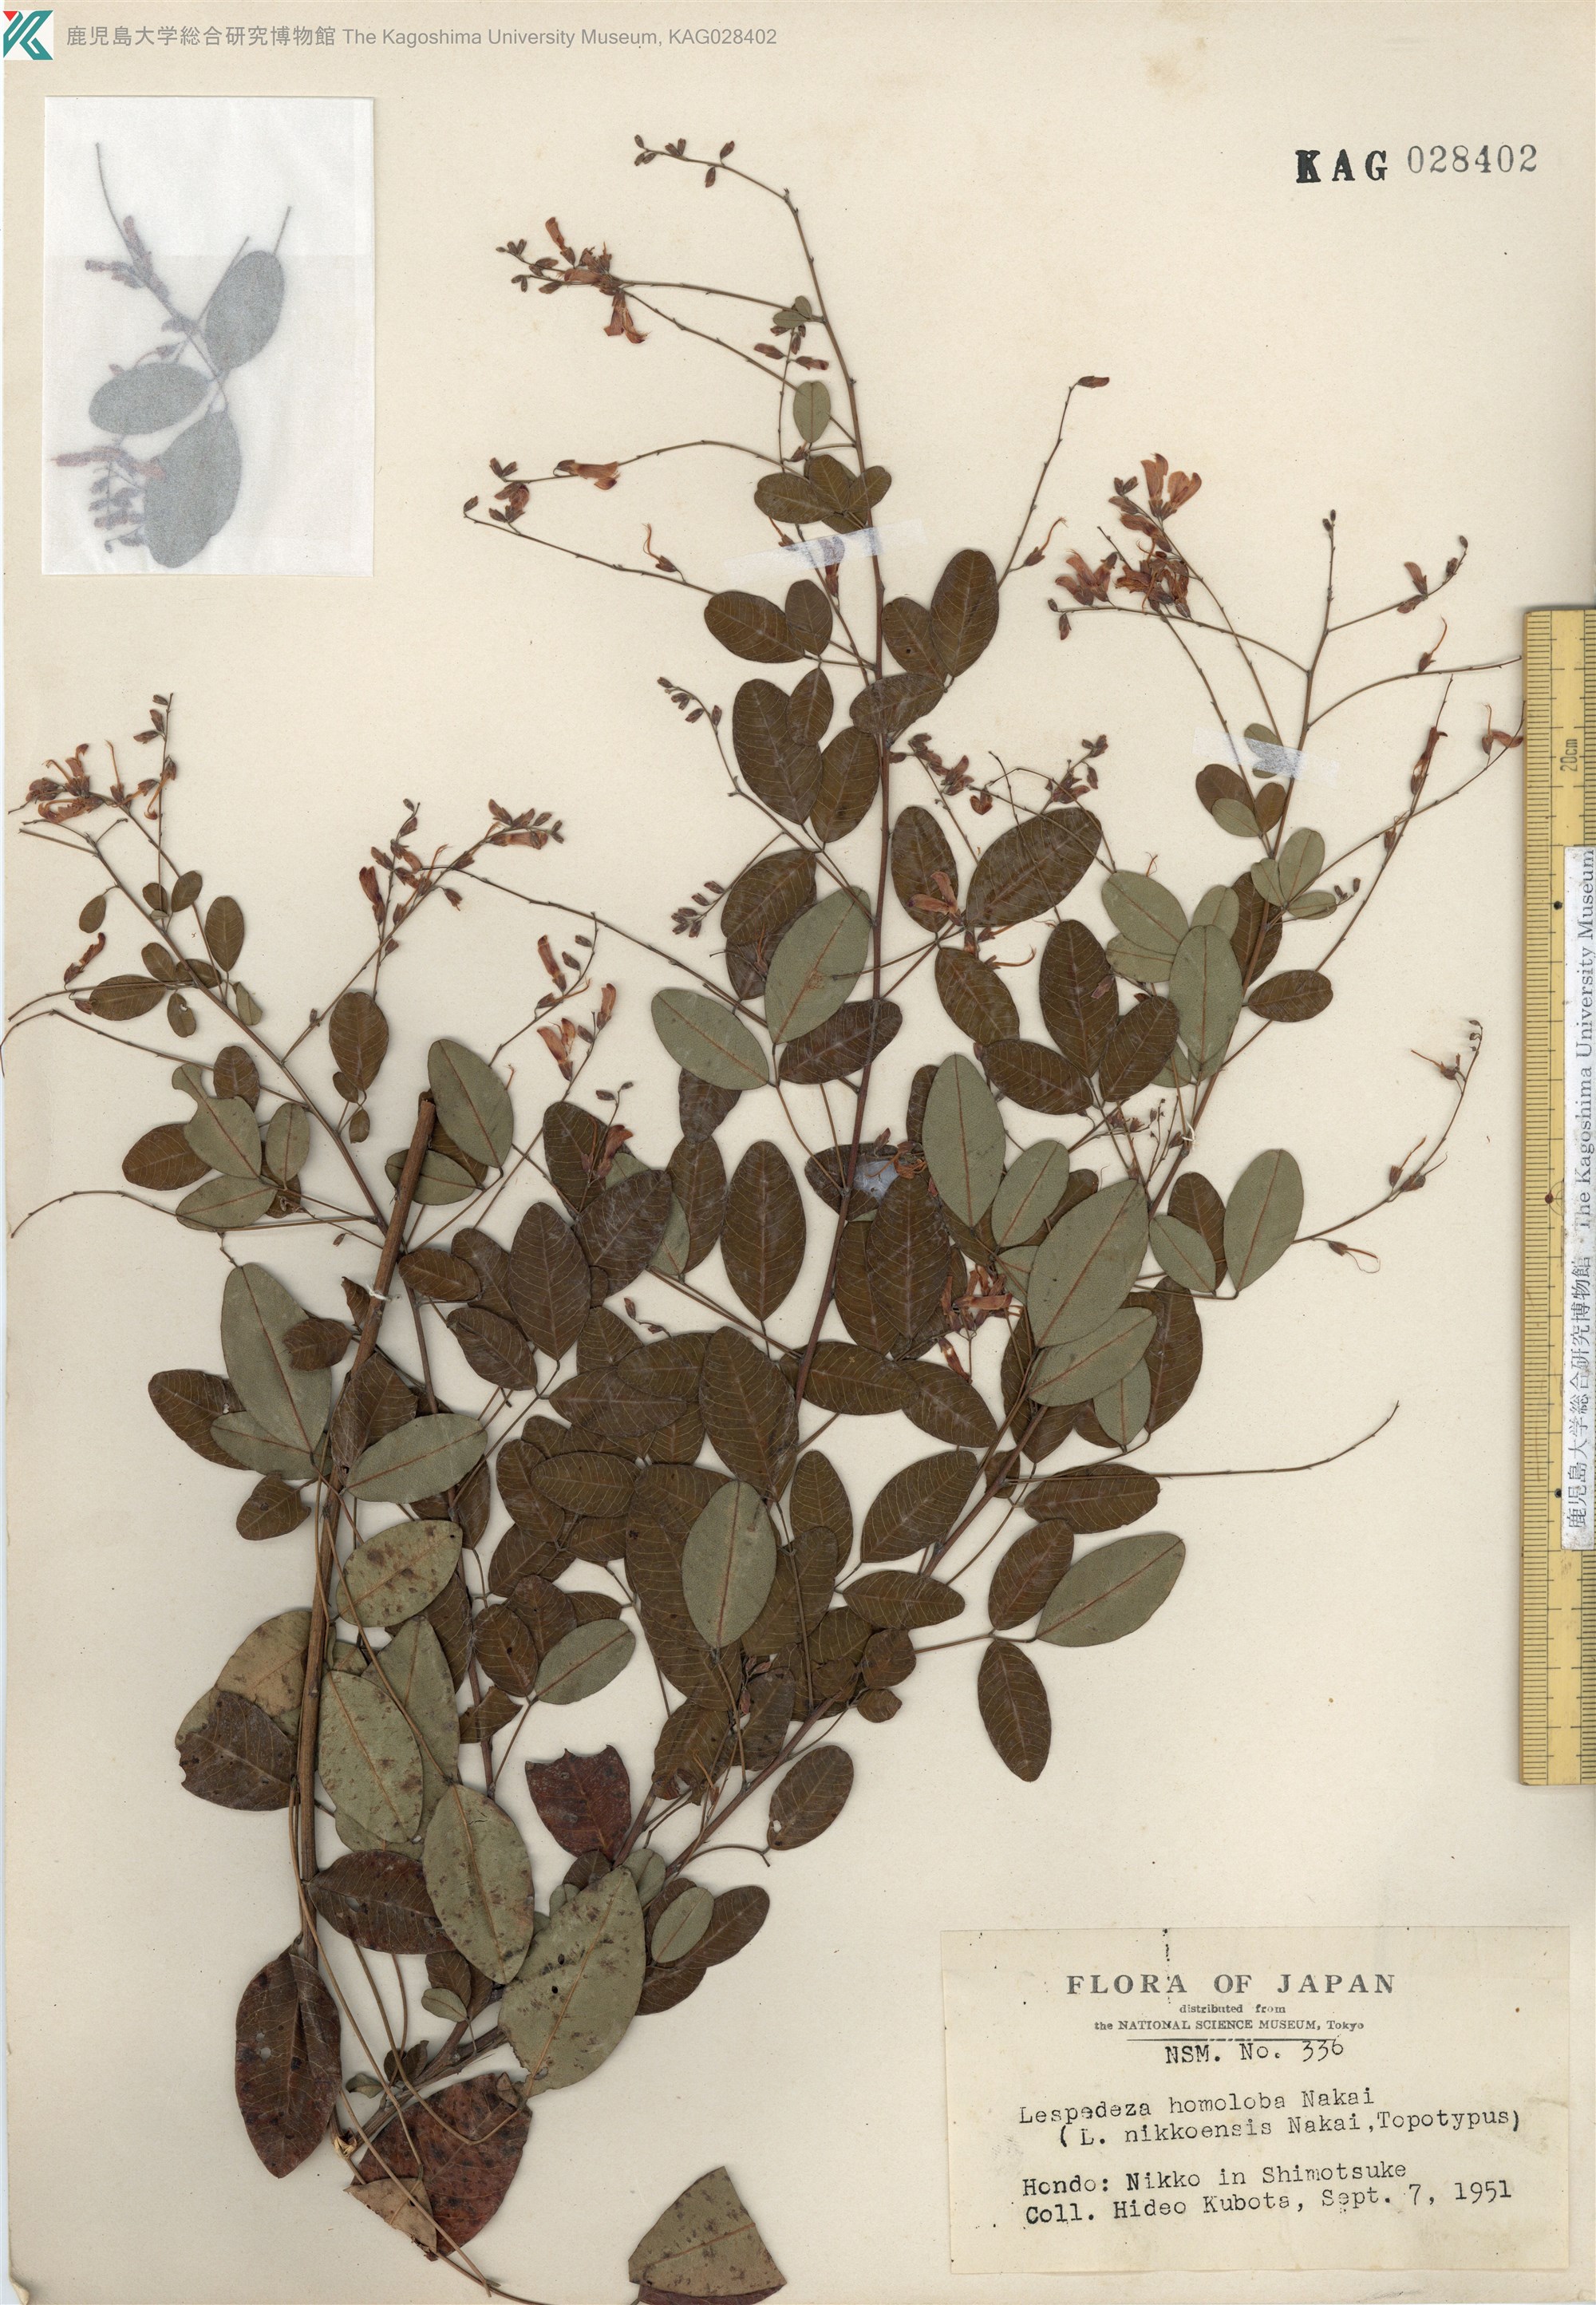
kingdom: Plantae
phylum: Tracheophyta
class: Magnoliopsida
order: Fabales
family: Fabaceae
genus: Lespedeza
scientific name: Lespedeza homoloba
